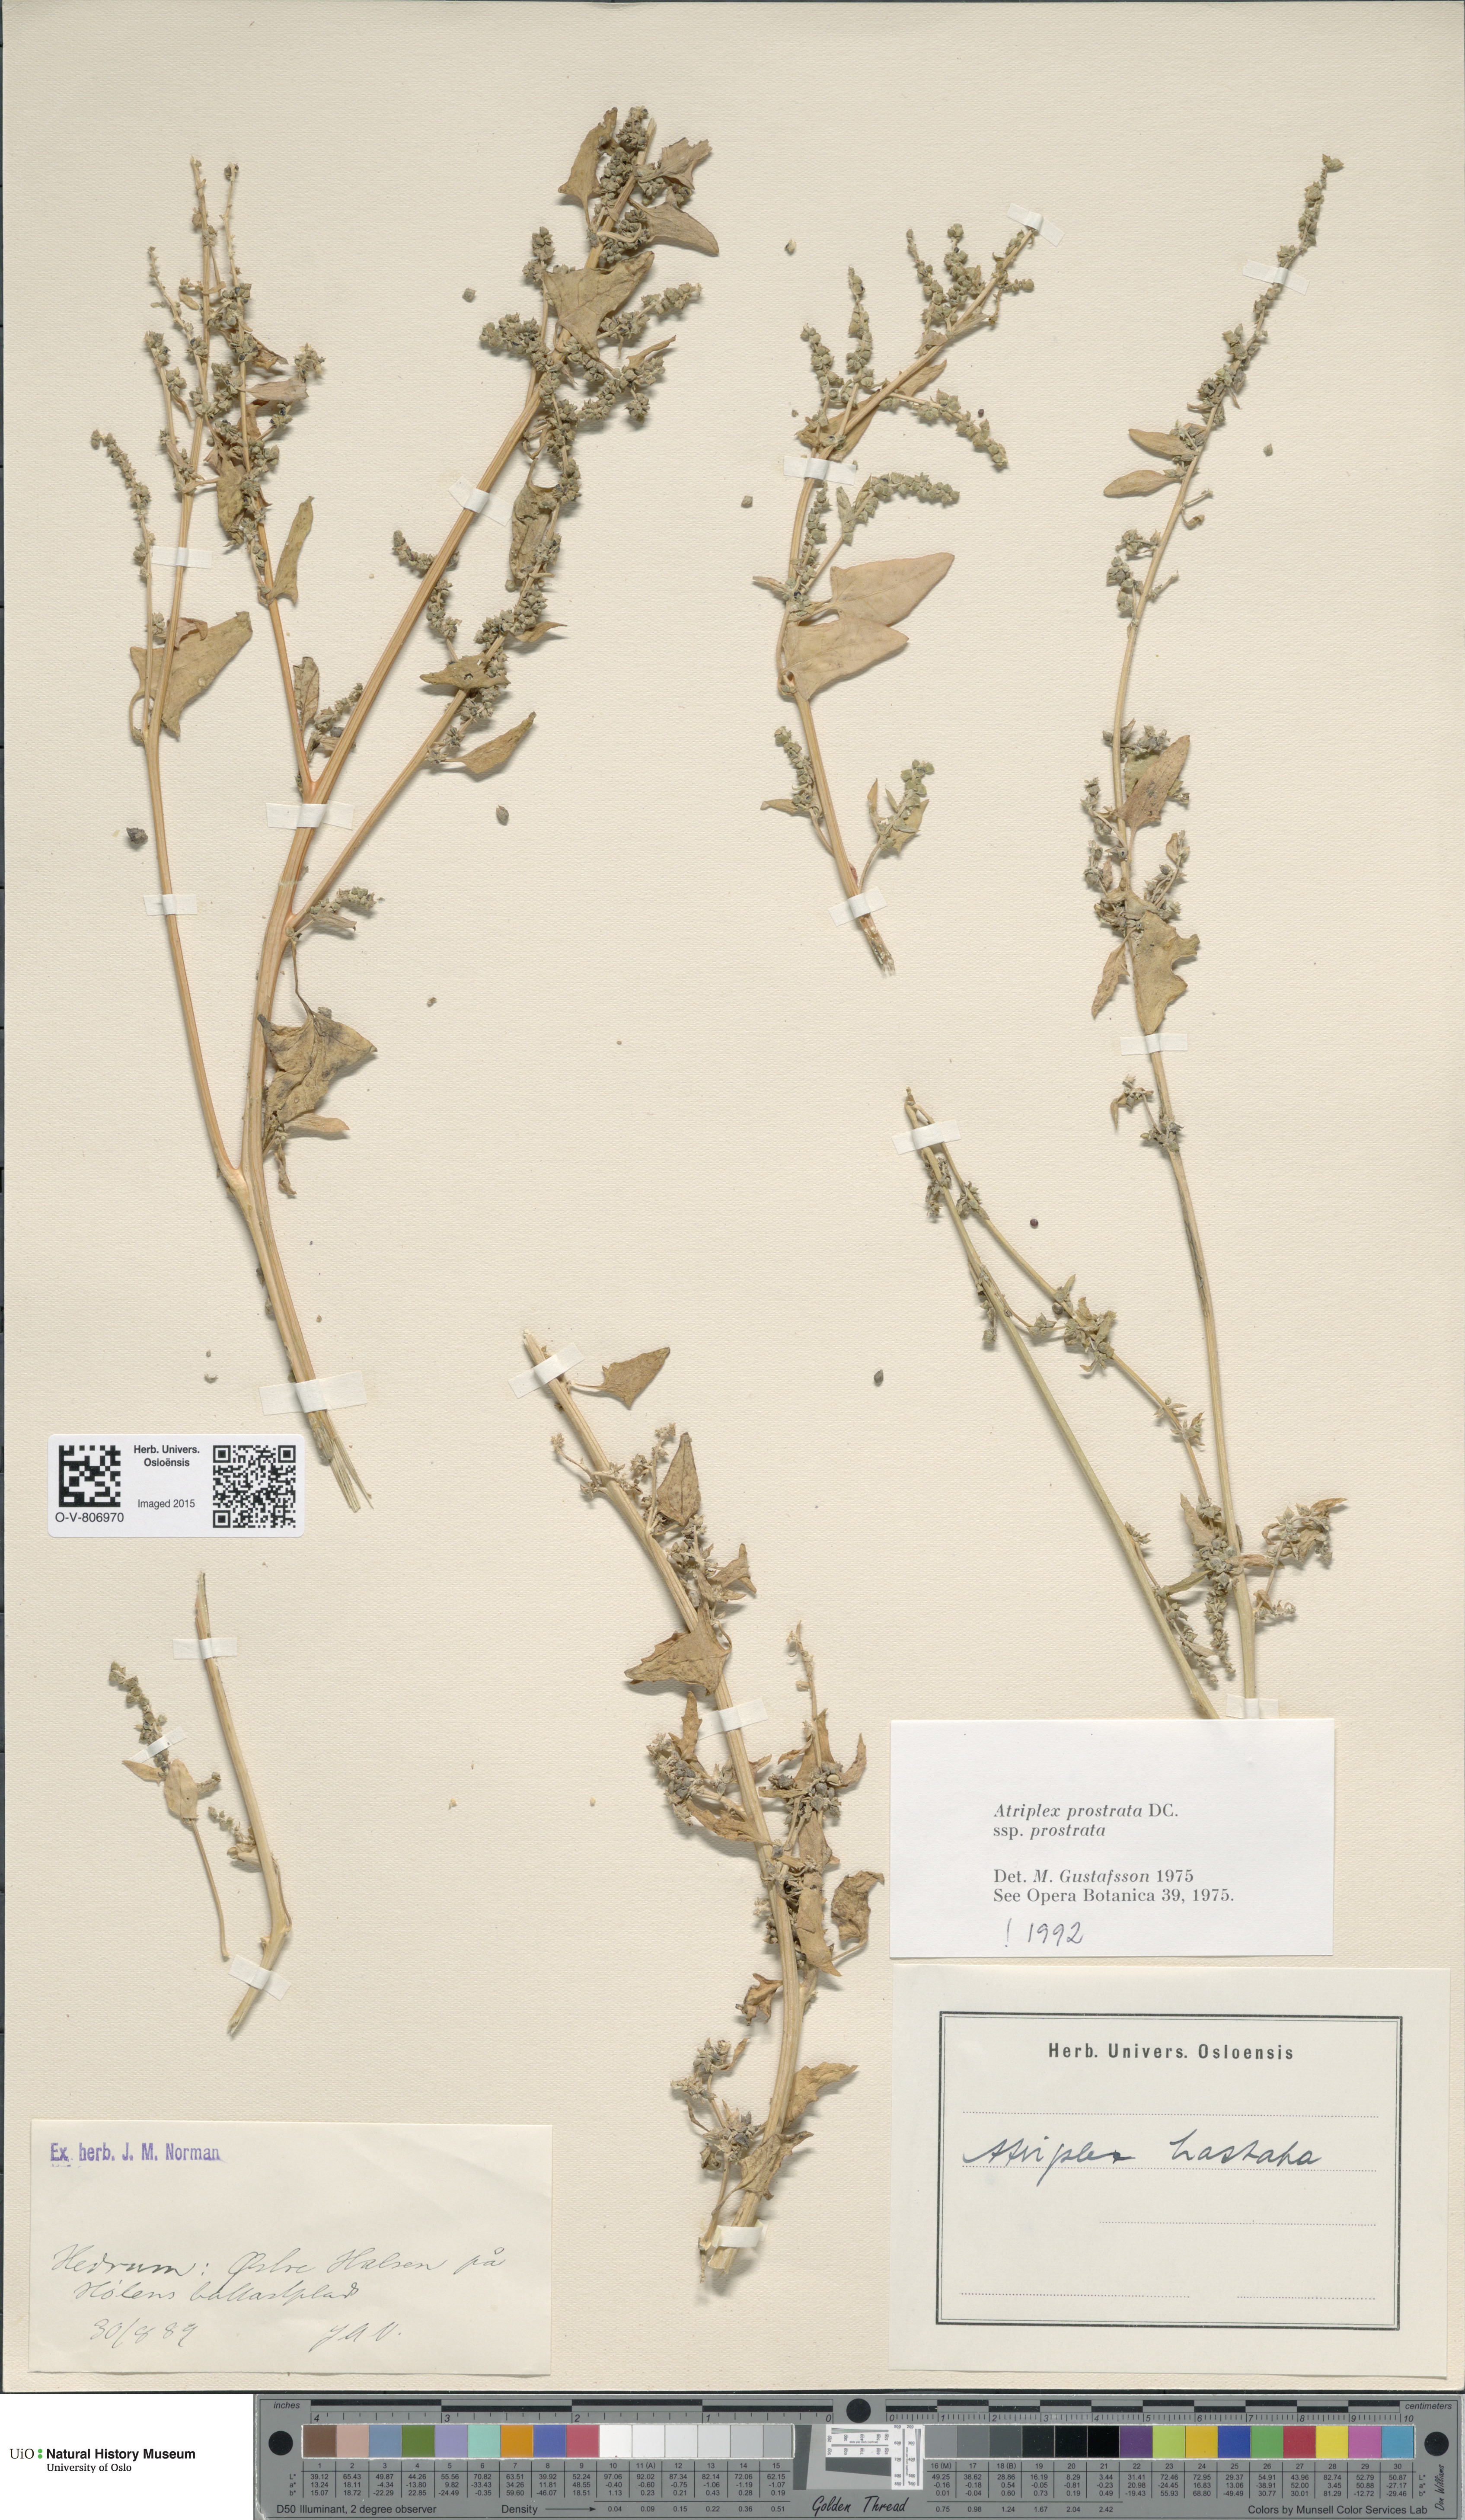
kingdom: Plantae
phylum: Tracheophyta
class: Magnoliopsida
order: Caryophyllales
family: Amaranthaceae
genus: Atriplex
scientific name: Atriplex prostrata
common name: Spear-leaved orache
